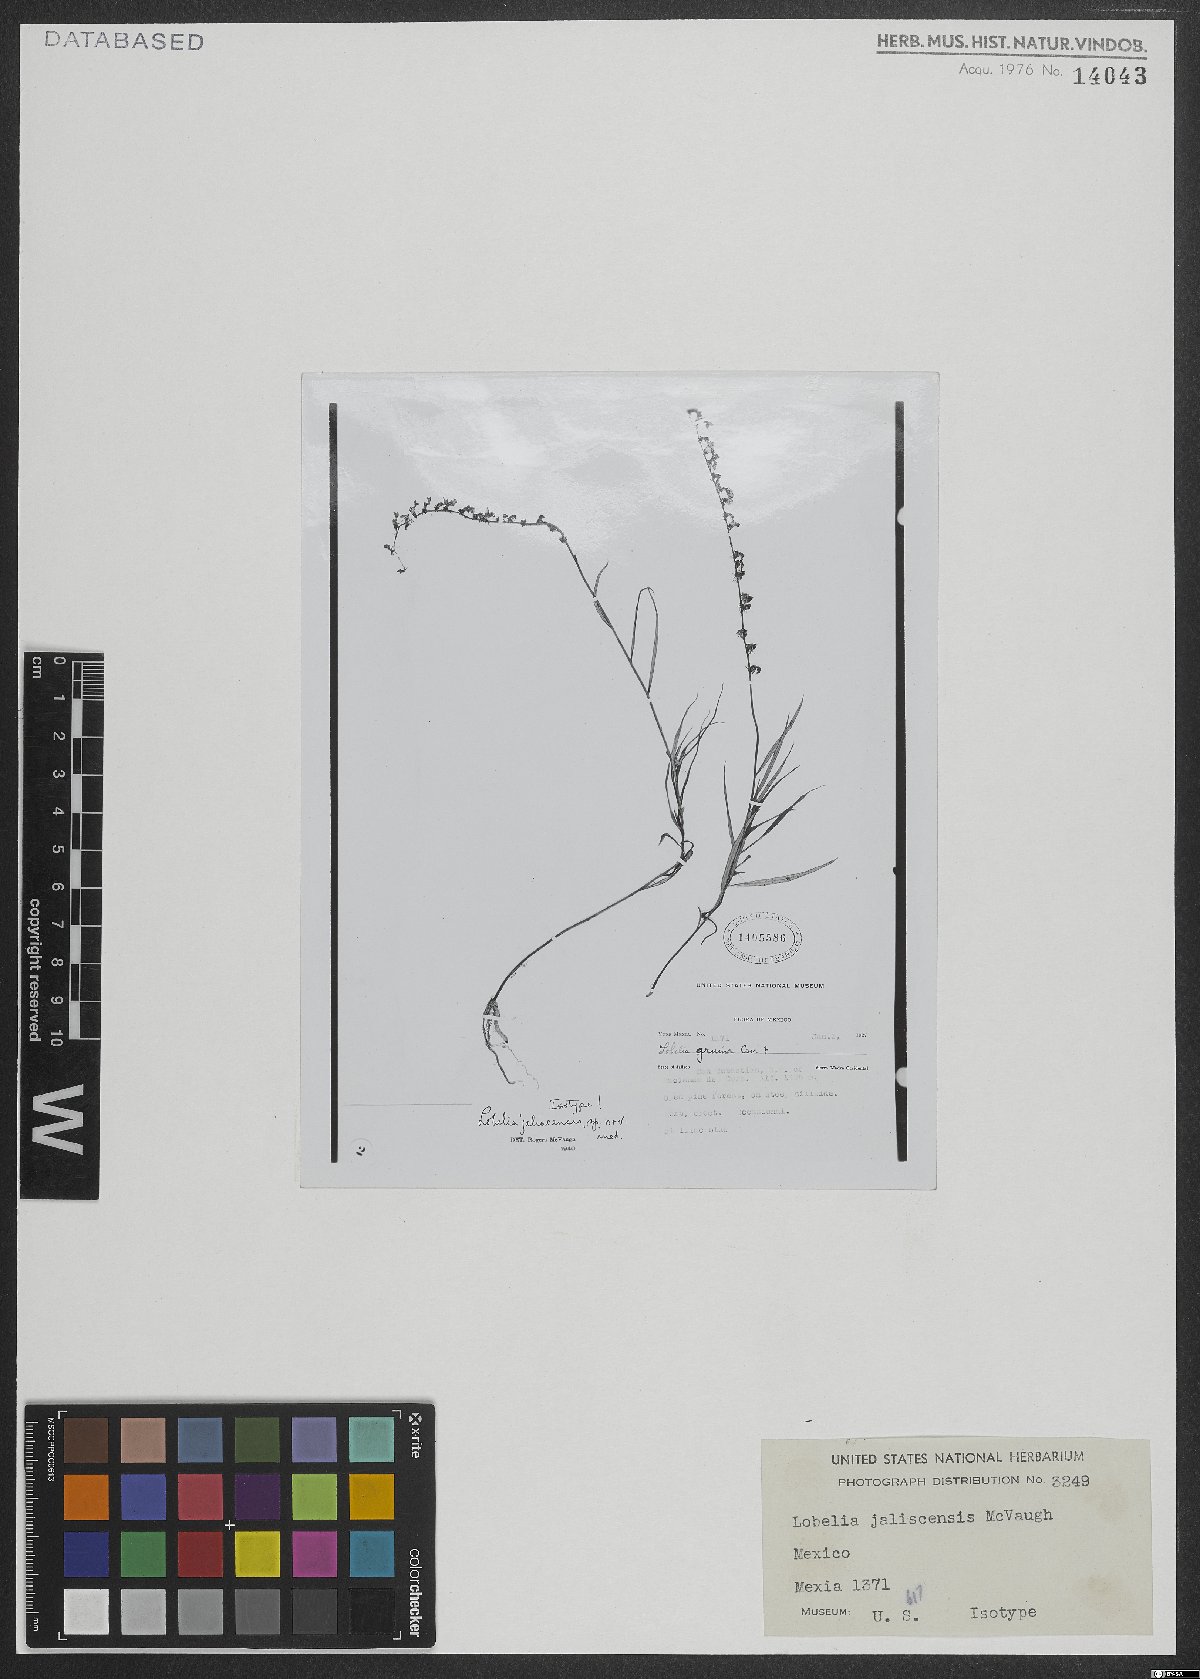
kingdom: Plantae
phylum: Tracheophyta
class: Magnoliopsida
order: Asterales
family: Campanulaceae
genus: Lobelia
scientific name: Lobelia jaliscensis
